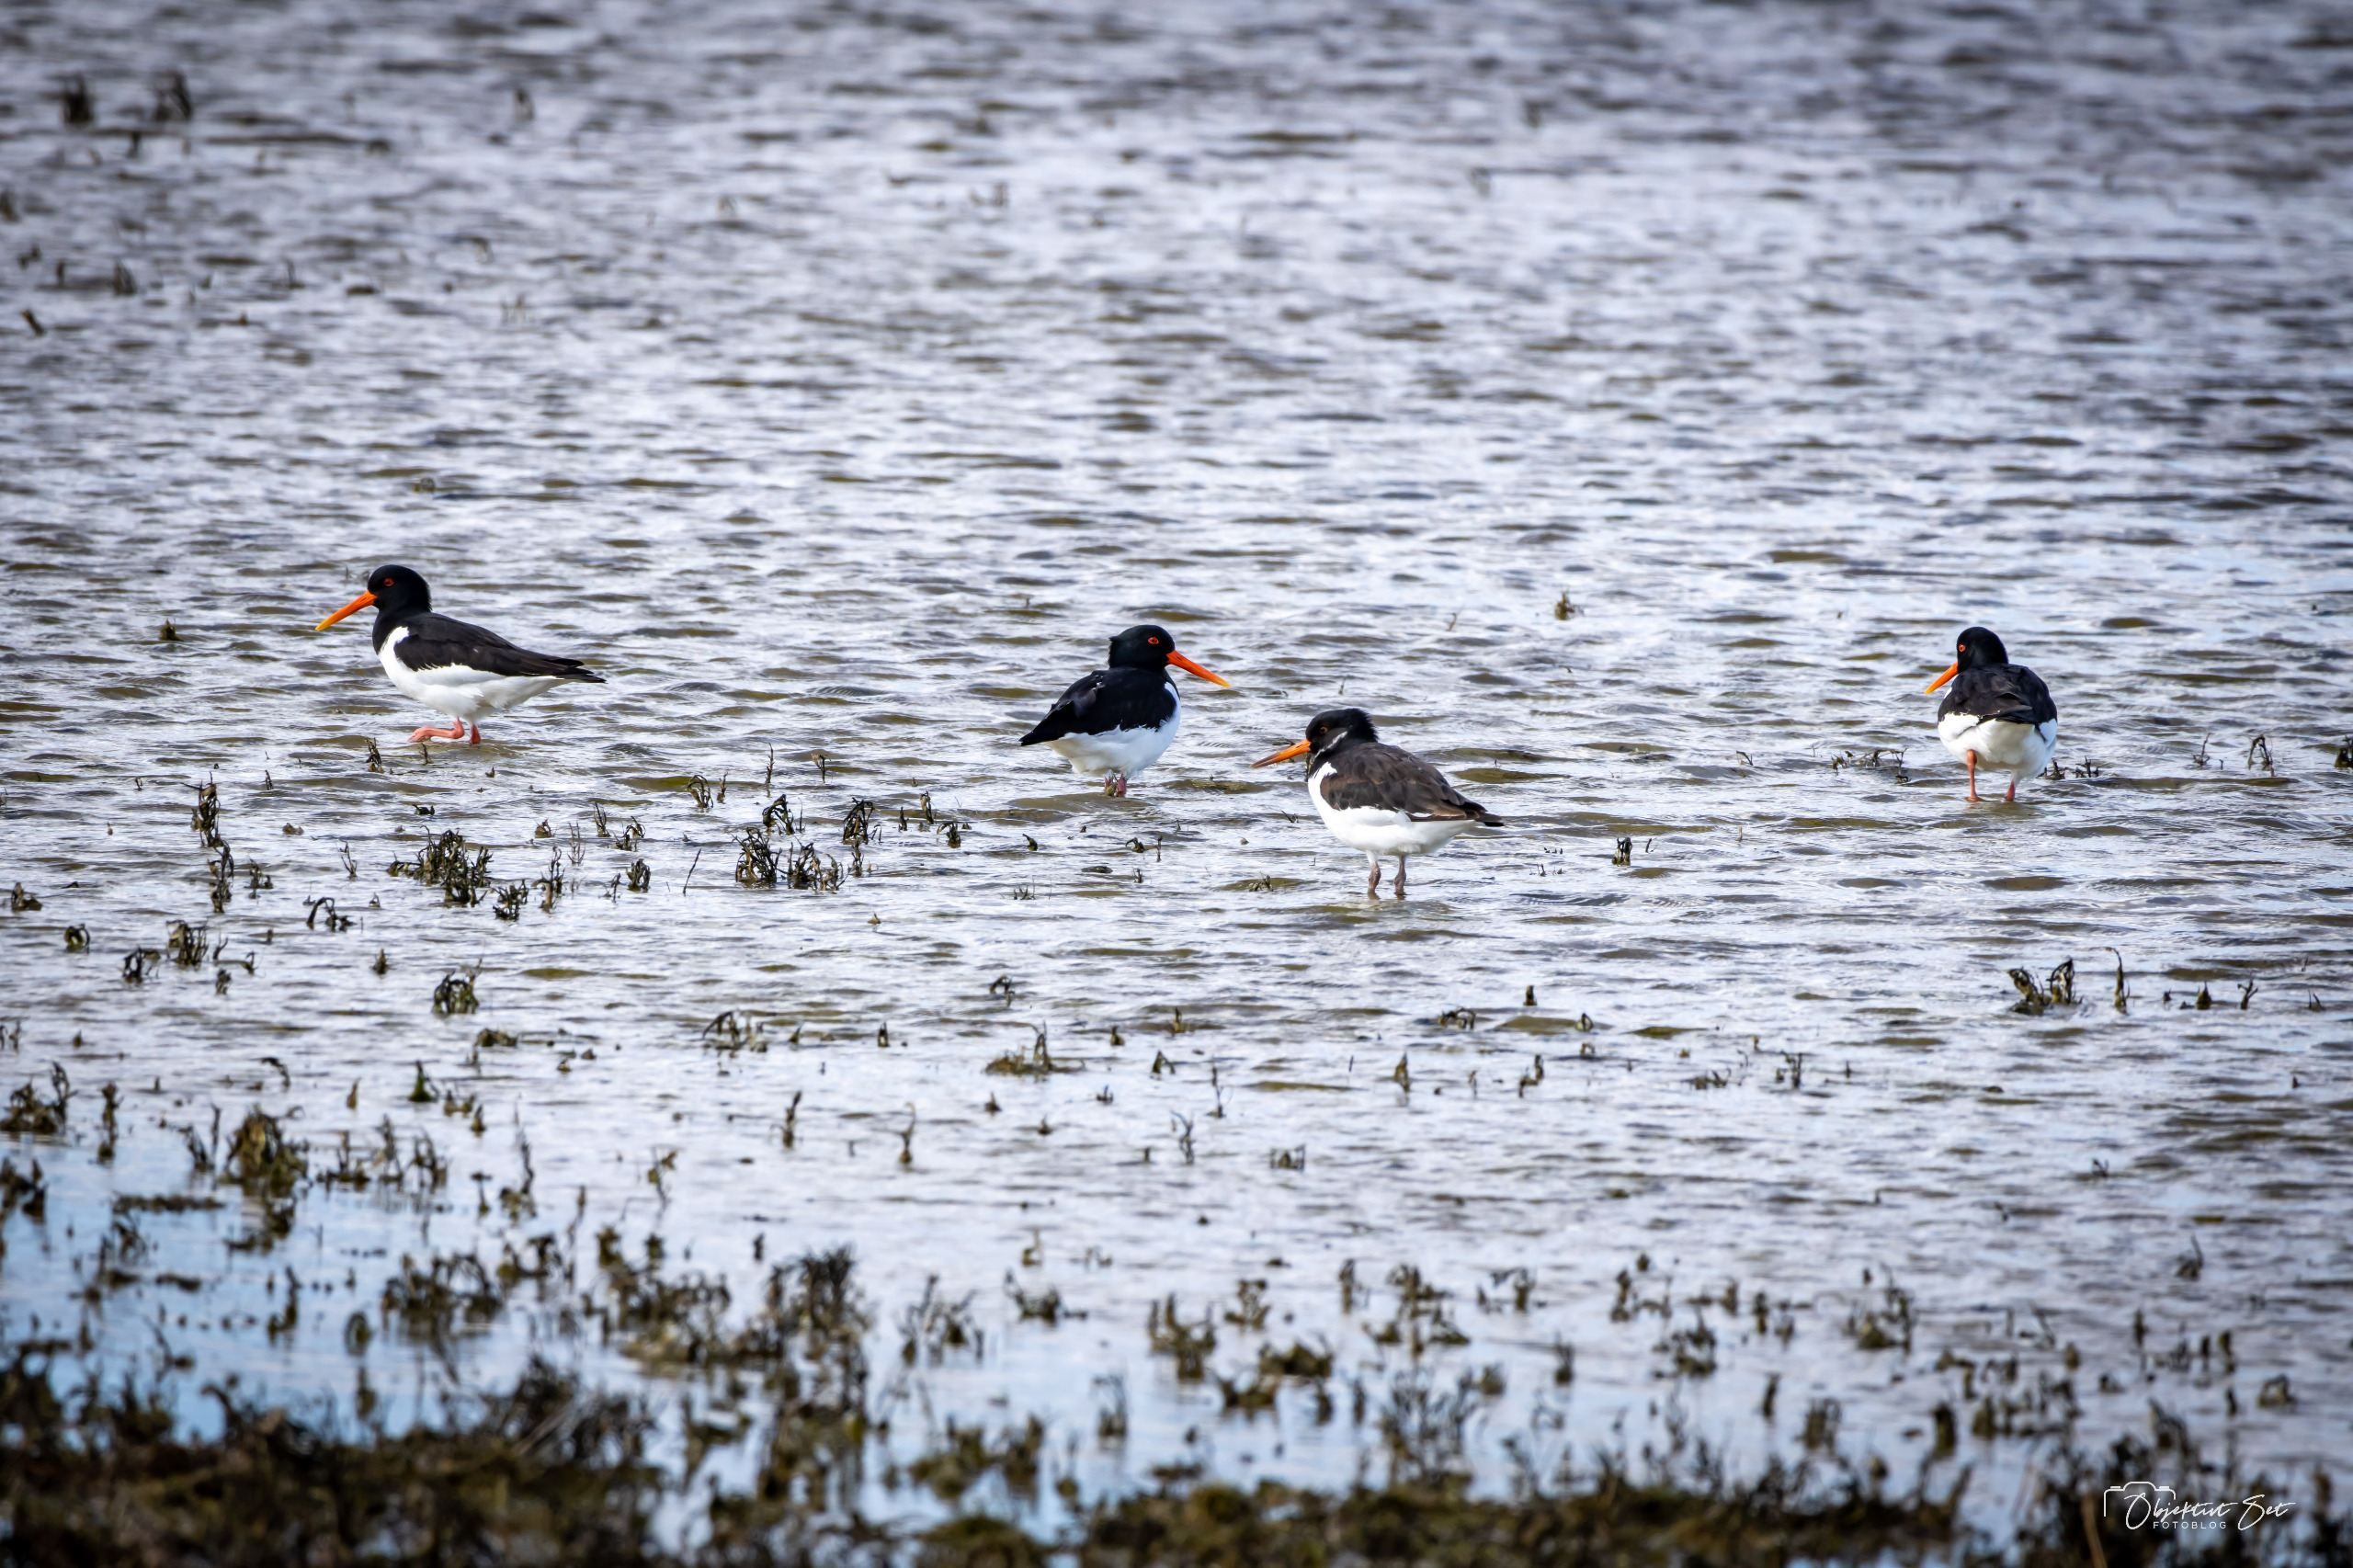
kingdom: Animalia
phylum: Chordata
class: Aves
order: Charadriiformes
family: Haematopodidae
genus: Haematopus
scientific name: Haematopus ostralegus
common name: Strandskade
